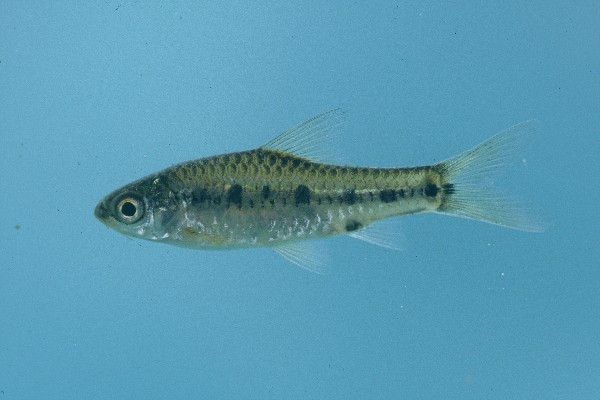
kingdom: Animalia
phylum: Chordata
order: Cypriniformes
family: Cyprinidae
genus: Enteromius
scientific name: Enteromius lineomaculatus
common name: Line-spotted barb
